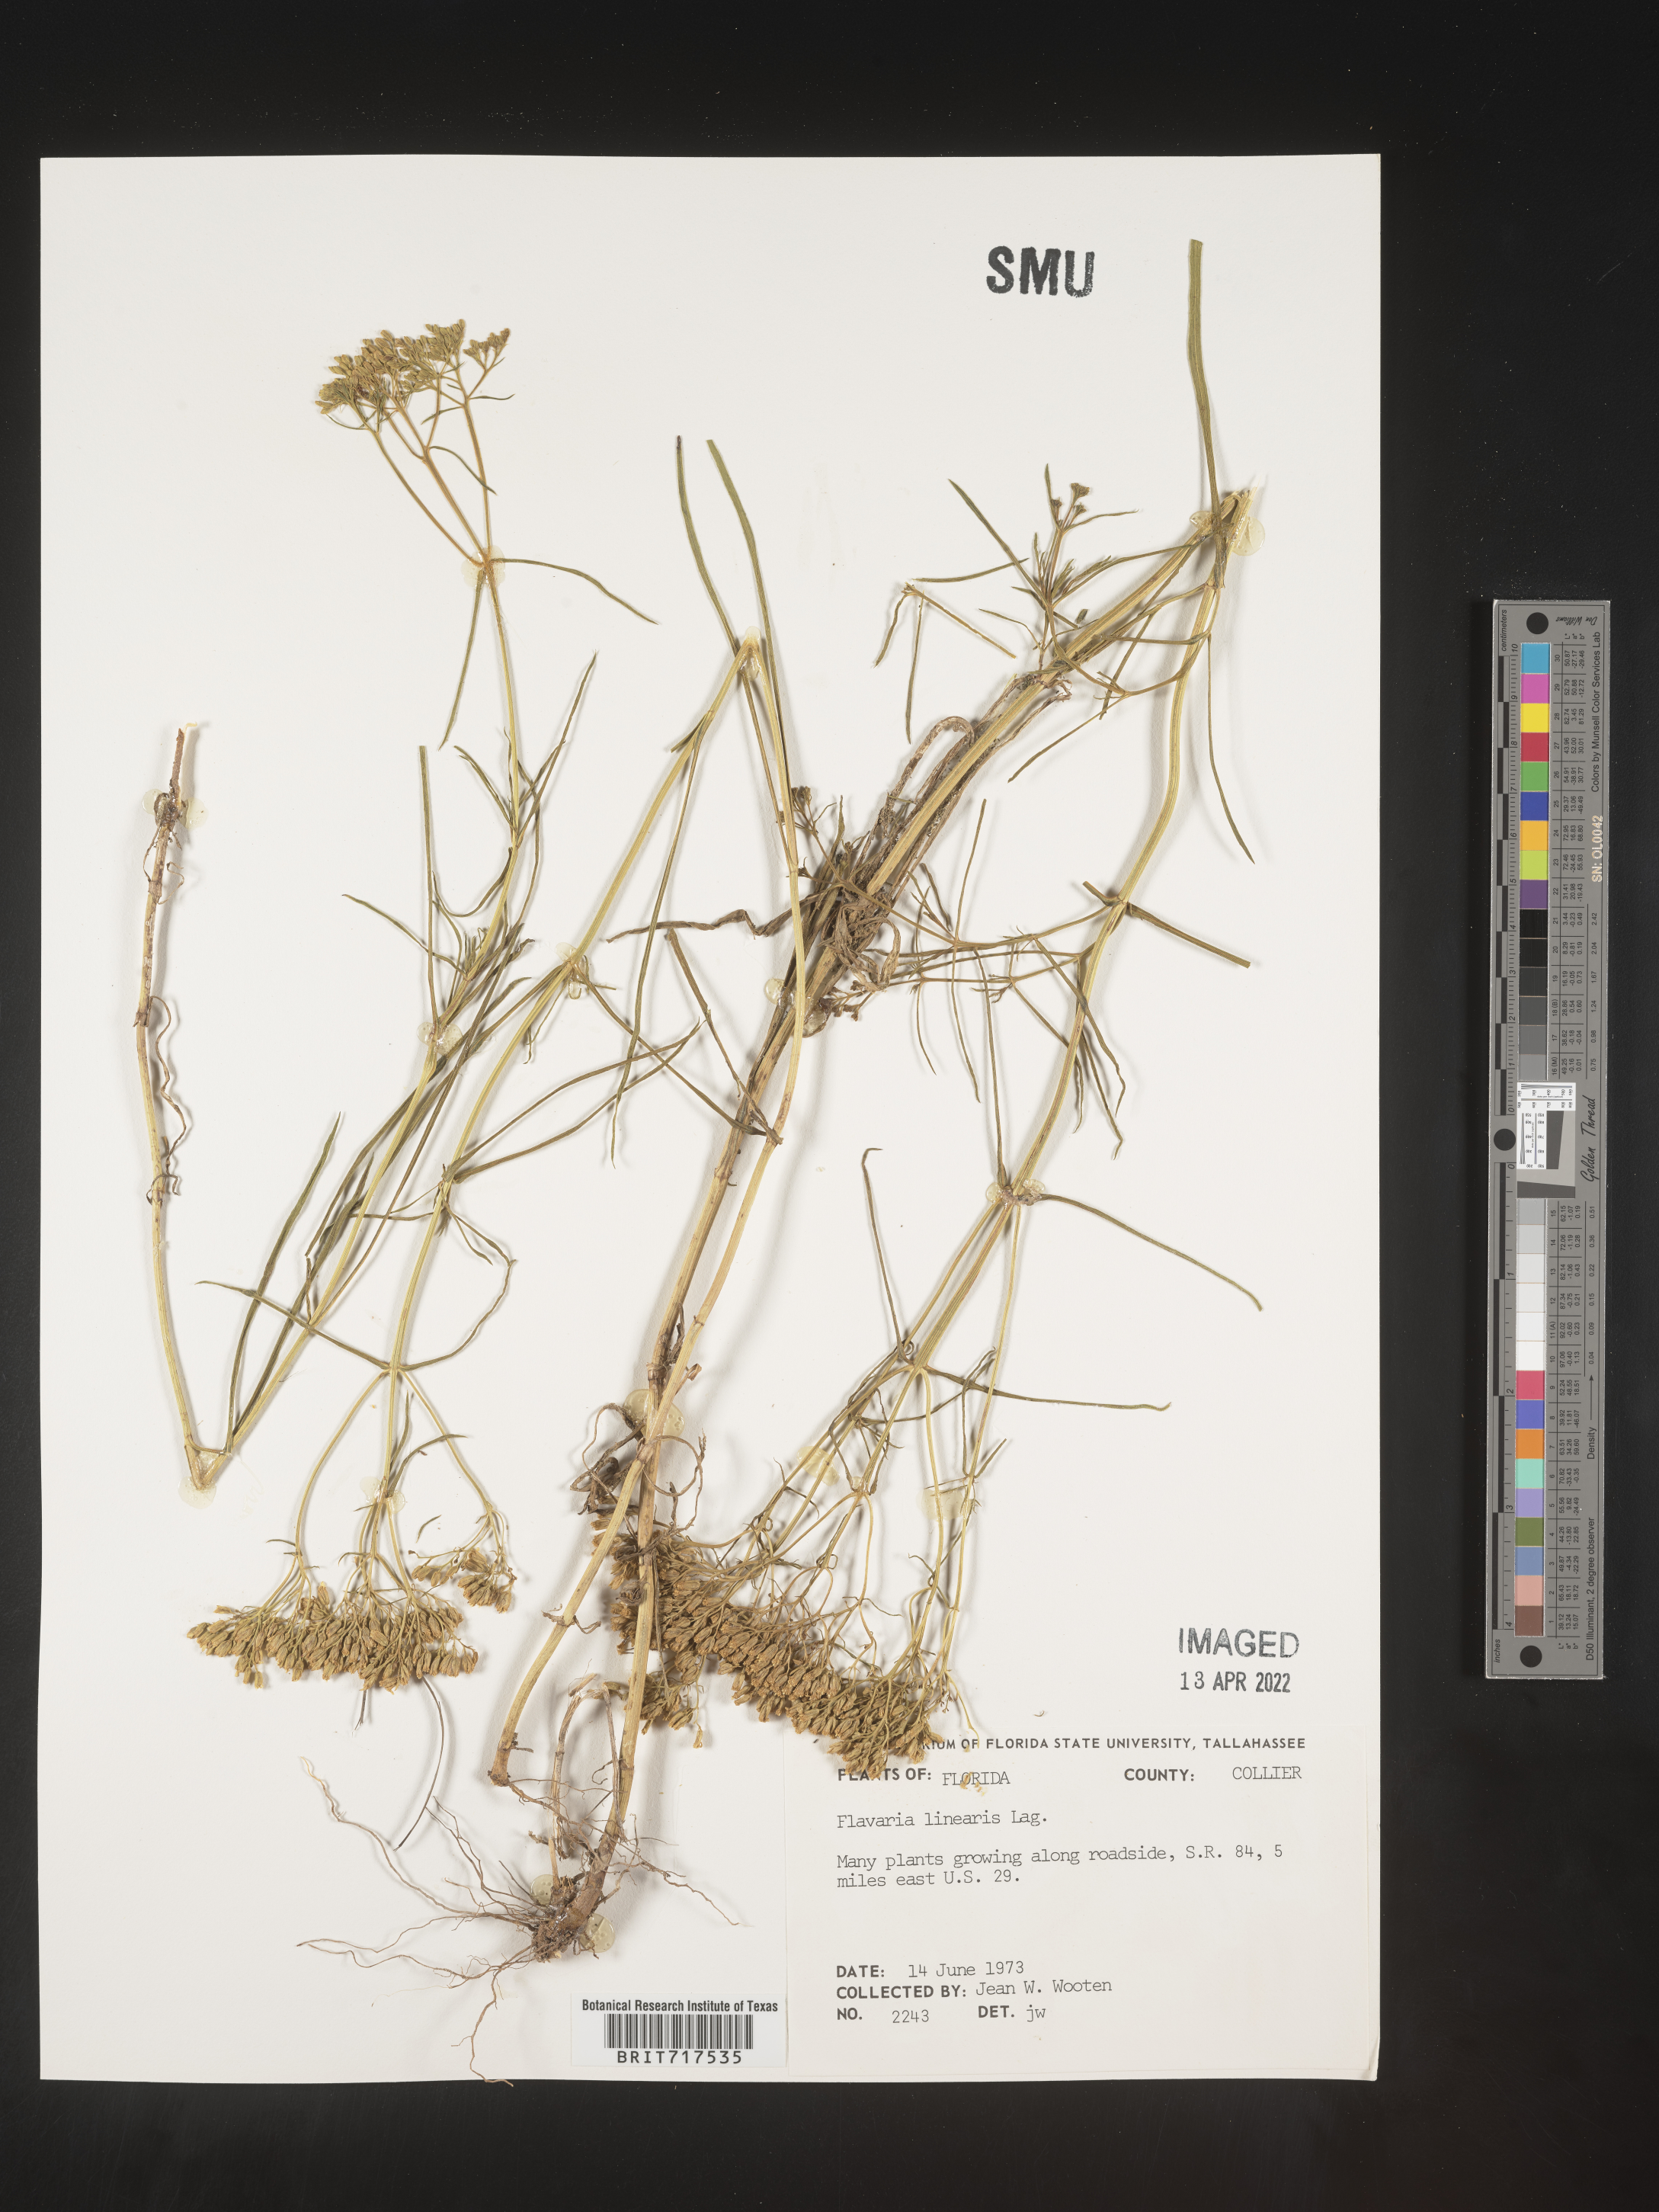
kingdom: Plantae
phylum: Tracheophyta
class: Magnoliopsida
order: Asterales
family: Asteraceae
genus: Flaveria
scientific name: Flaveria linearis
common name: Yellowtop
